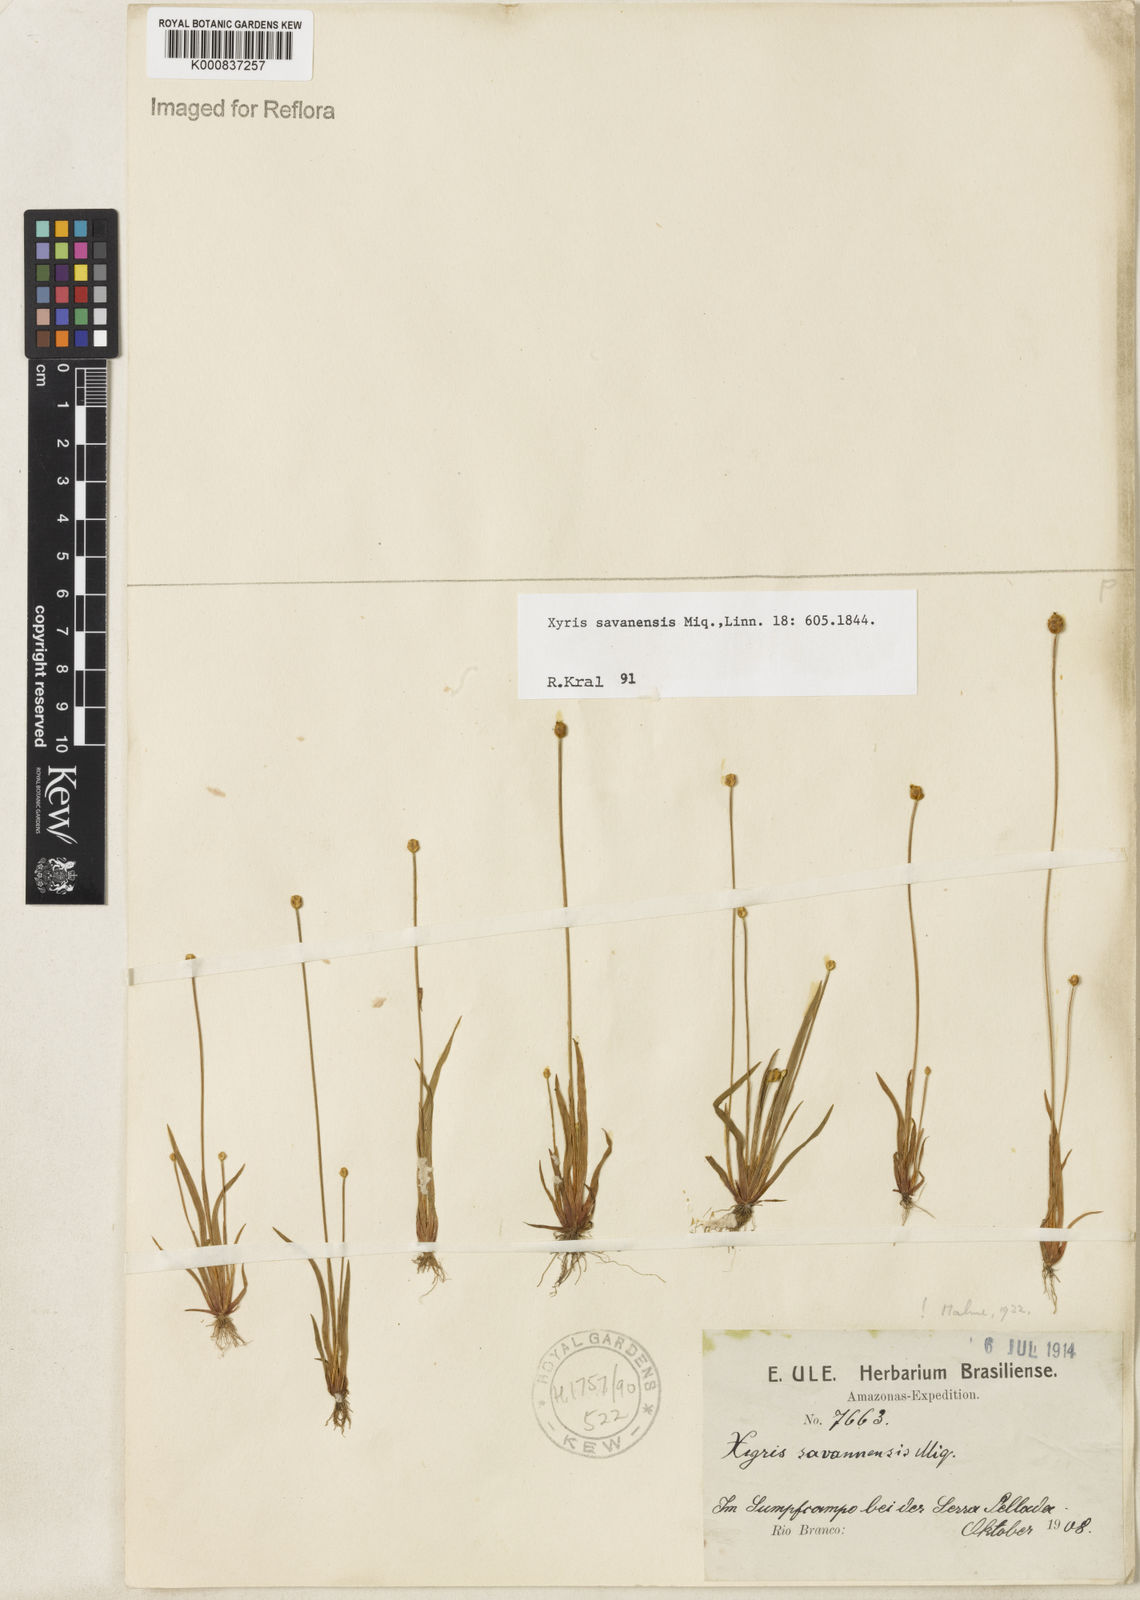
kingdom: Plantae
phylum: Tracheophyta
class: Liliopsida
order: Poales
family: Xyridaceae
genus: Xyris
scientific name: Xyris savanensis
